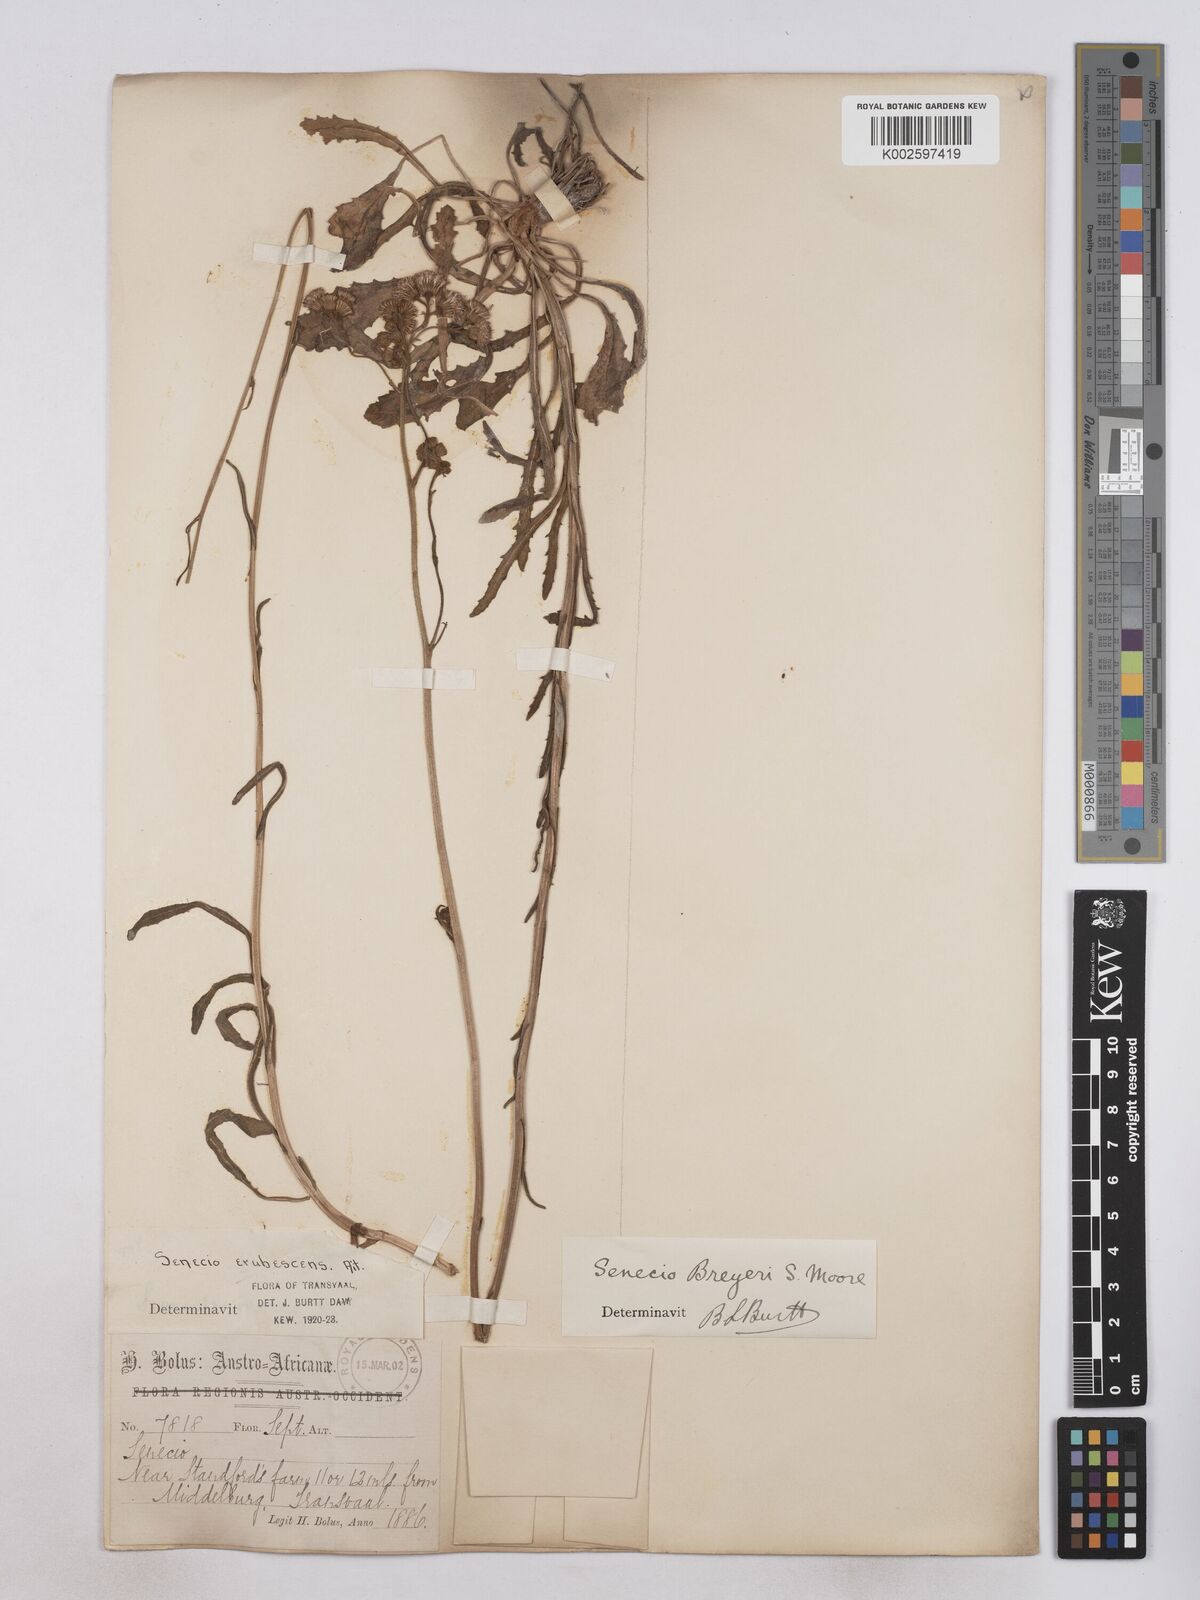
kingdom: Plantae
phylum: Tracheophyta
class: Magnoliopsida
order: Asterales
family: Asteraceae
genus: Senecio
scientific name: Senecio polyodon
